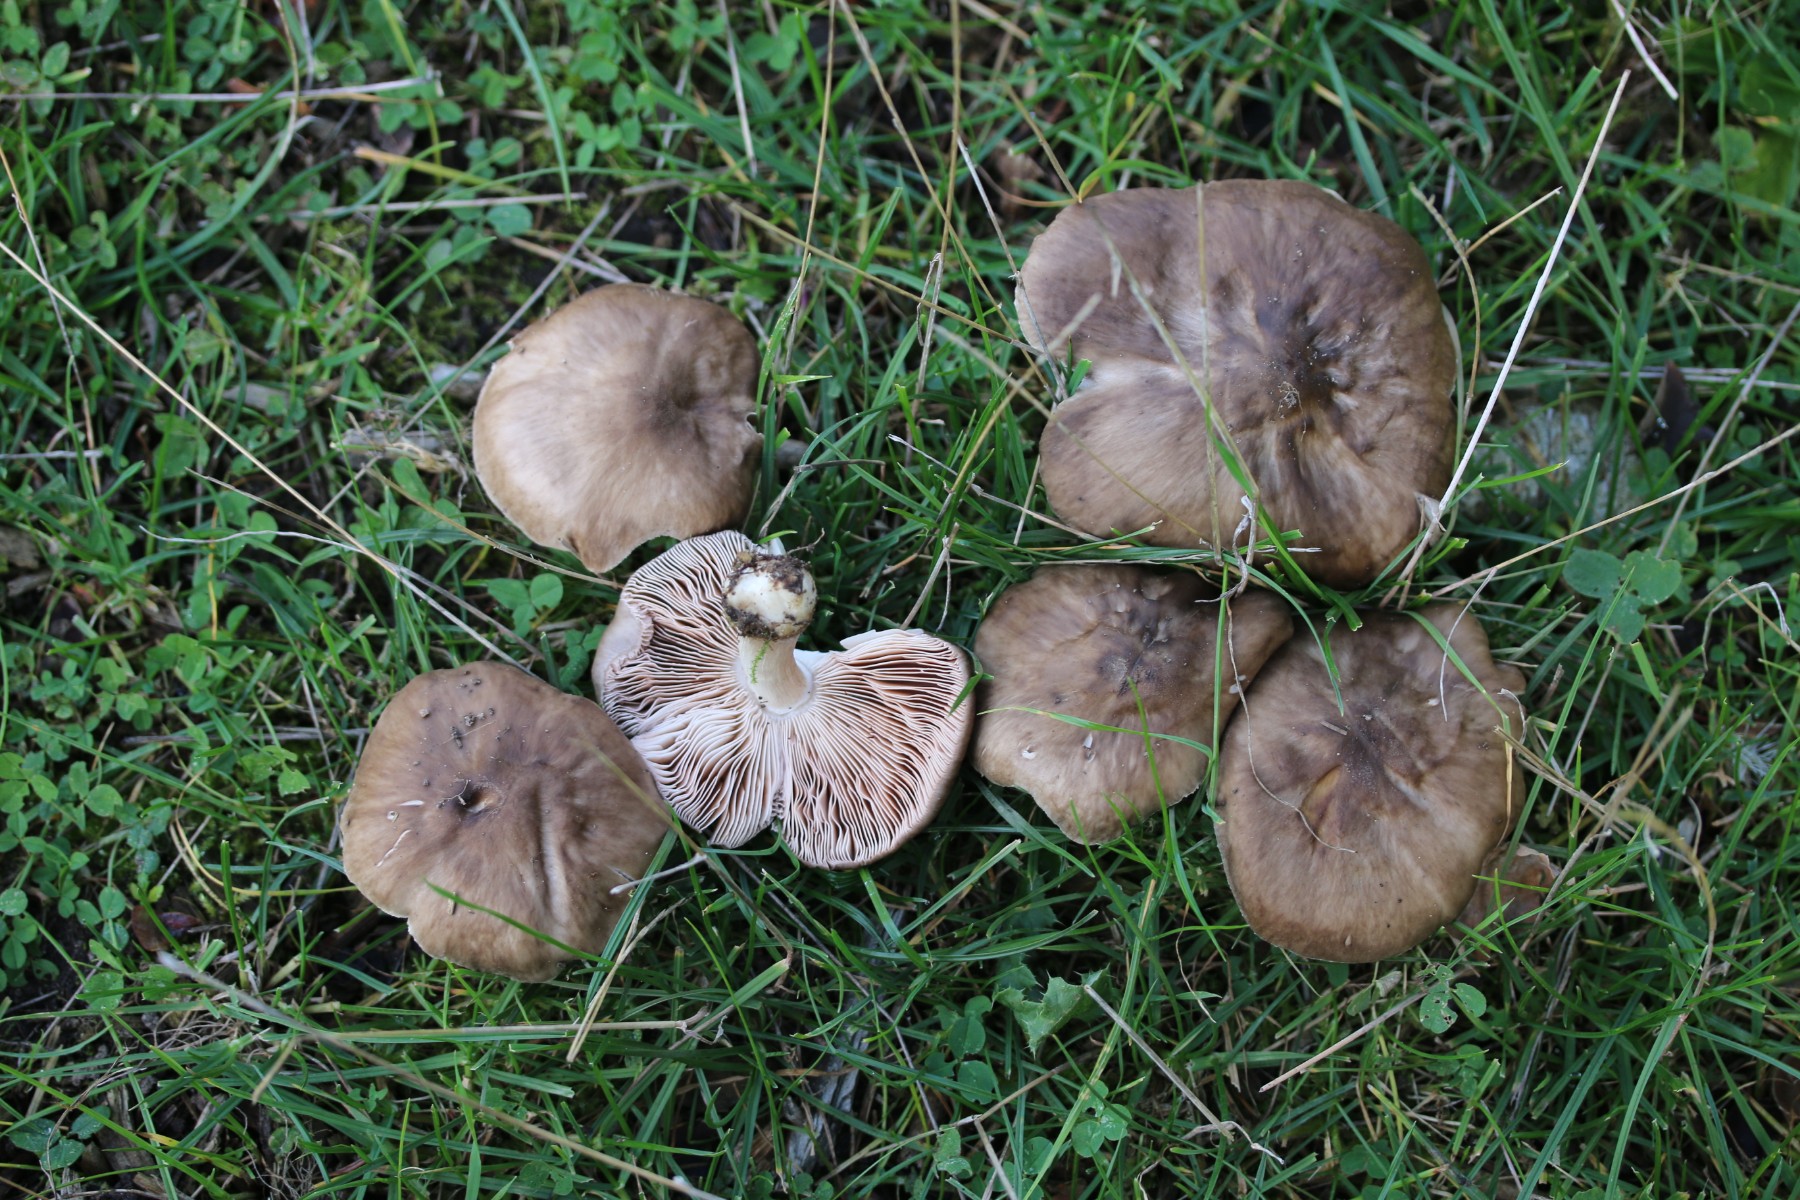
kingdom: Fungi
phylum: Basidiomycota
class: Agaricomycetes
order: Agaricales
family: Pluteaceae
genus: Pluteus
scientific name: Pluteus cervinus
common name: sodfarvet skærmhat
